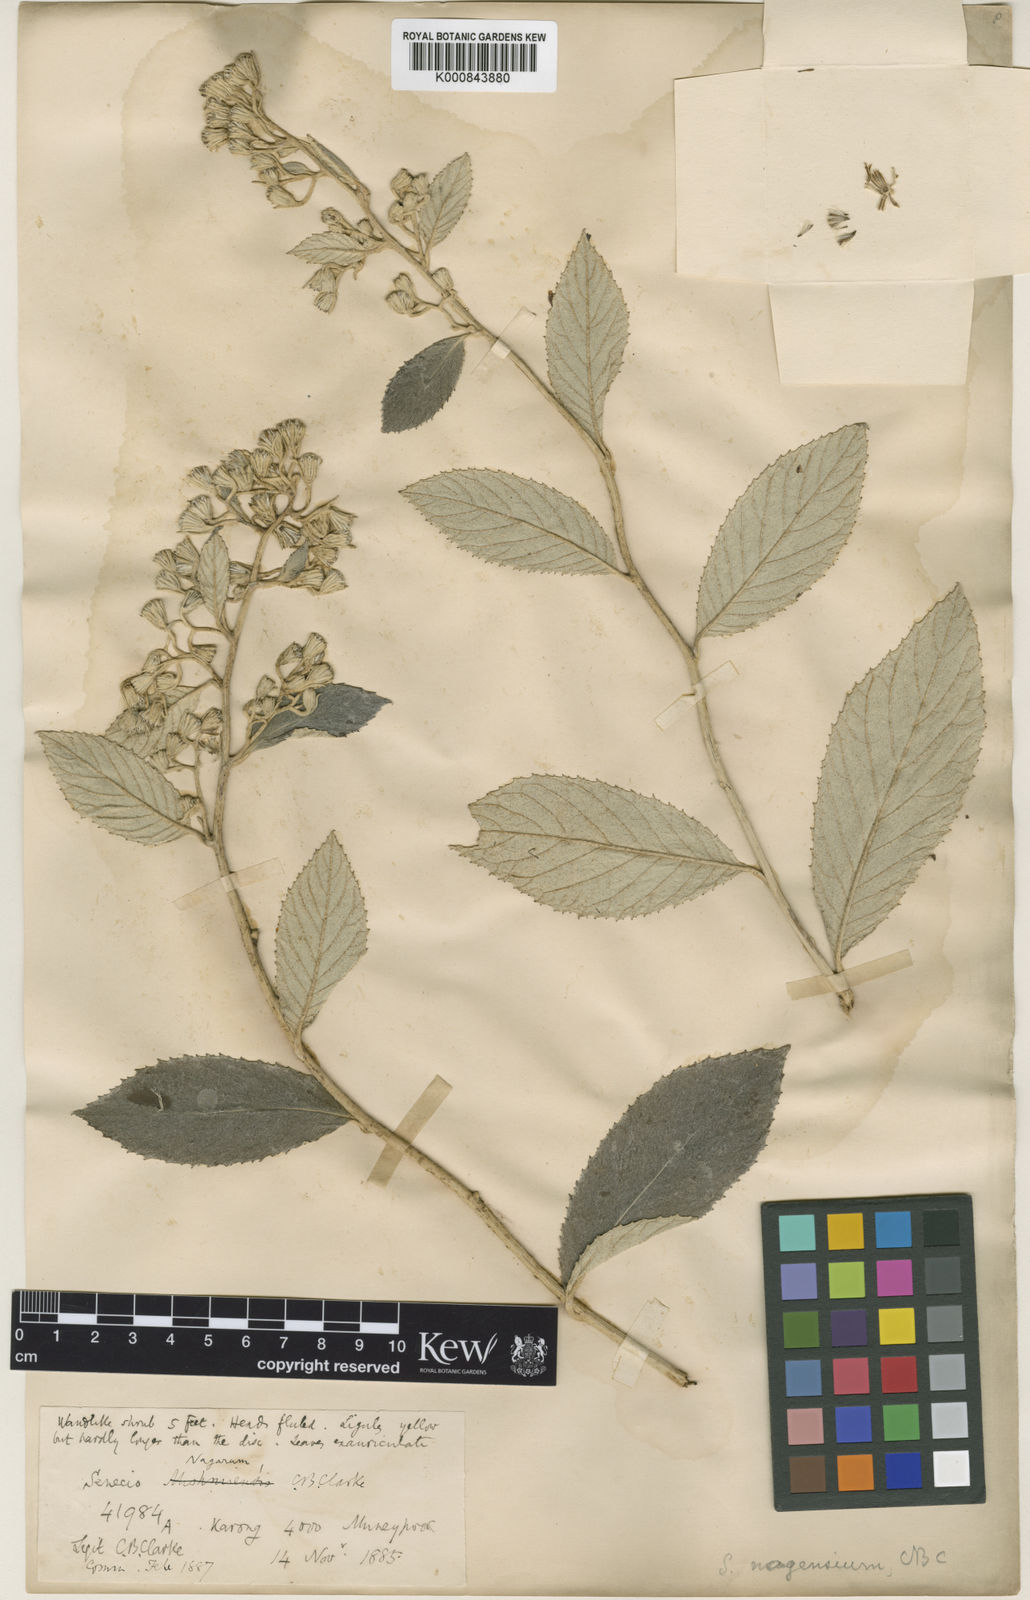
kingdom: Plantae
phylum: Tracheophyta
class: Magnoliopsida
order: Asterales
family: Asteraceae
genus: Synotis
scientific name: Synotis nagensium
